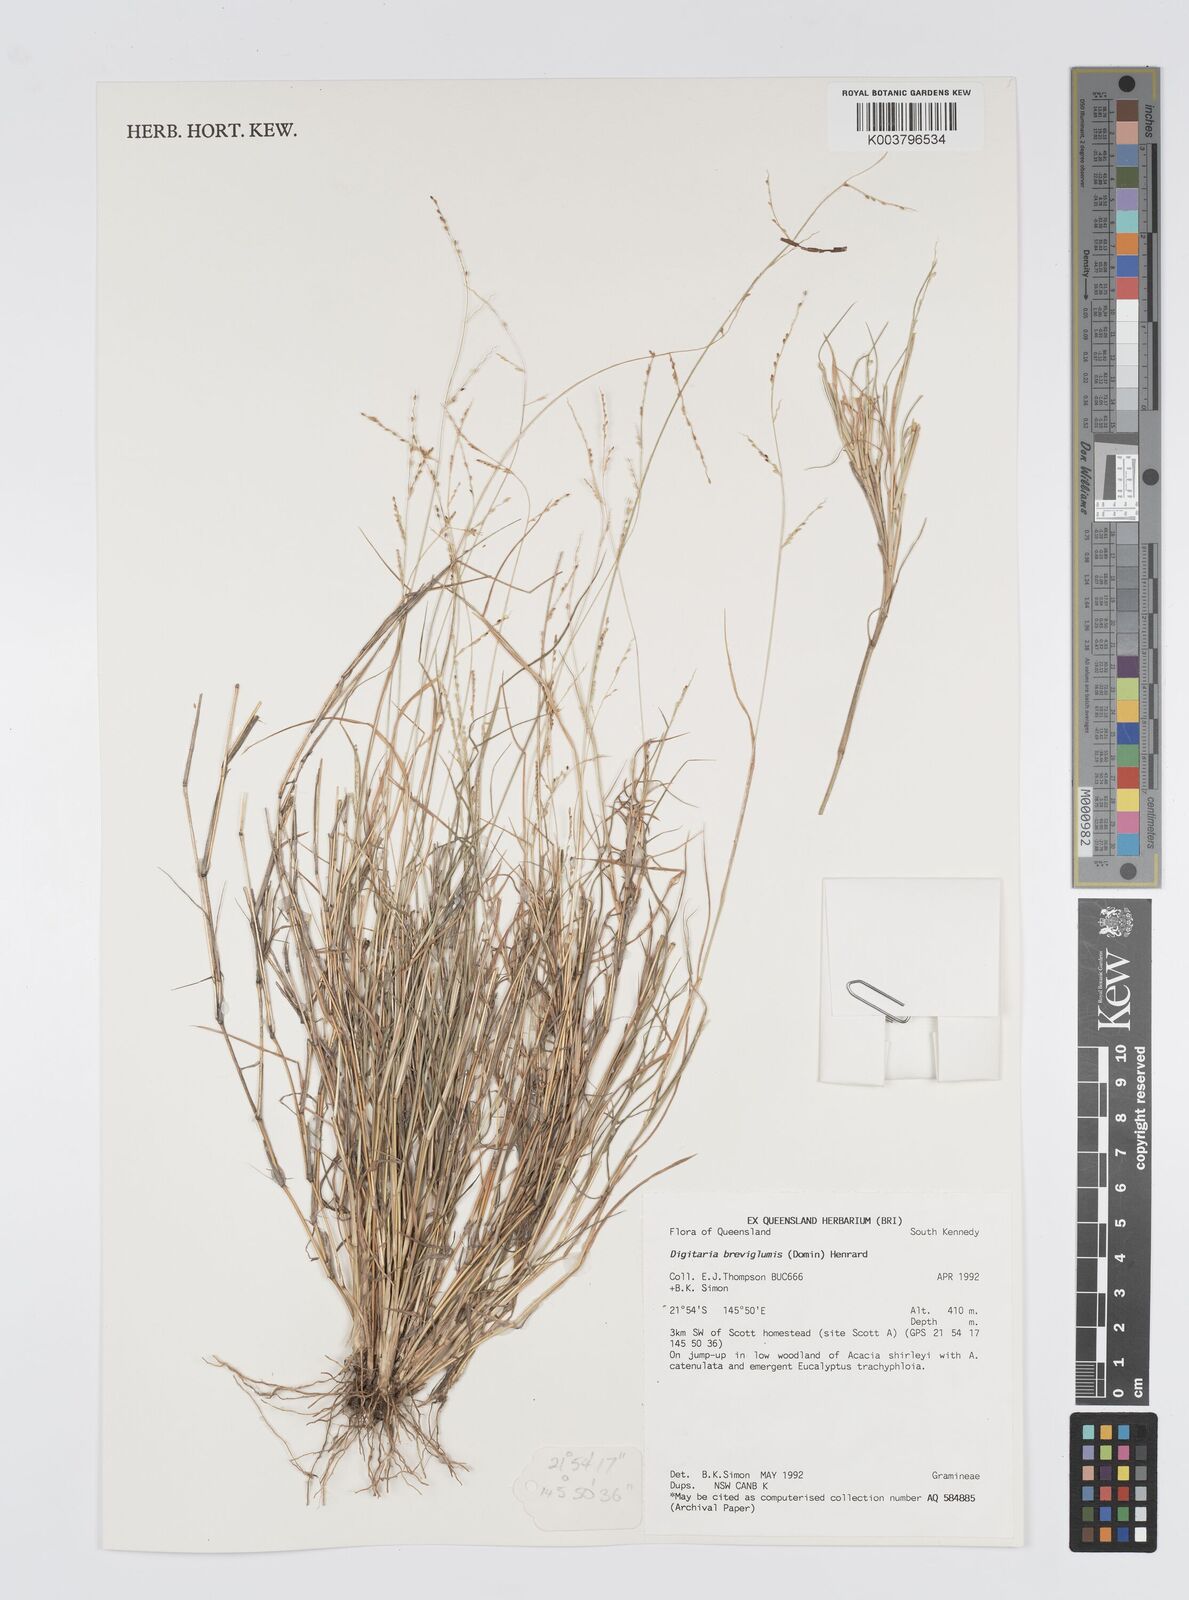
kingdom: Plantae
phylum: Tracheophyta
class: Liliopsida
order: Poales
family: Poaceae
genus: Digitaria
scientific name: Digitaria breviglumis
